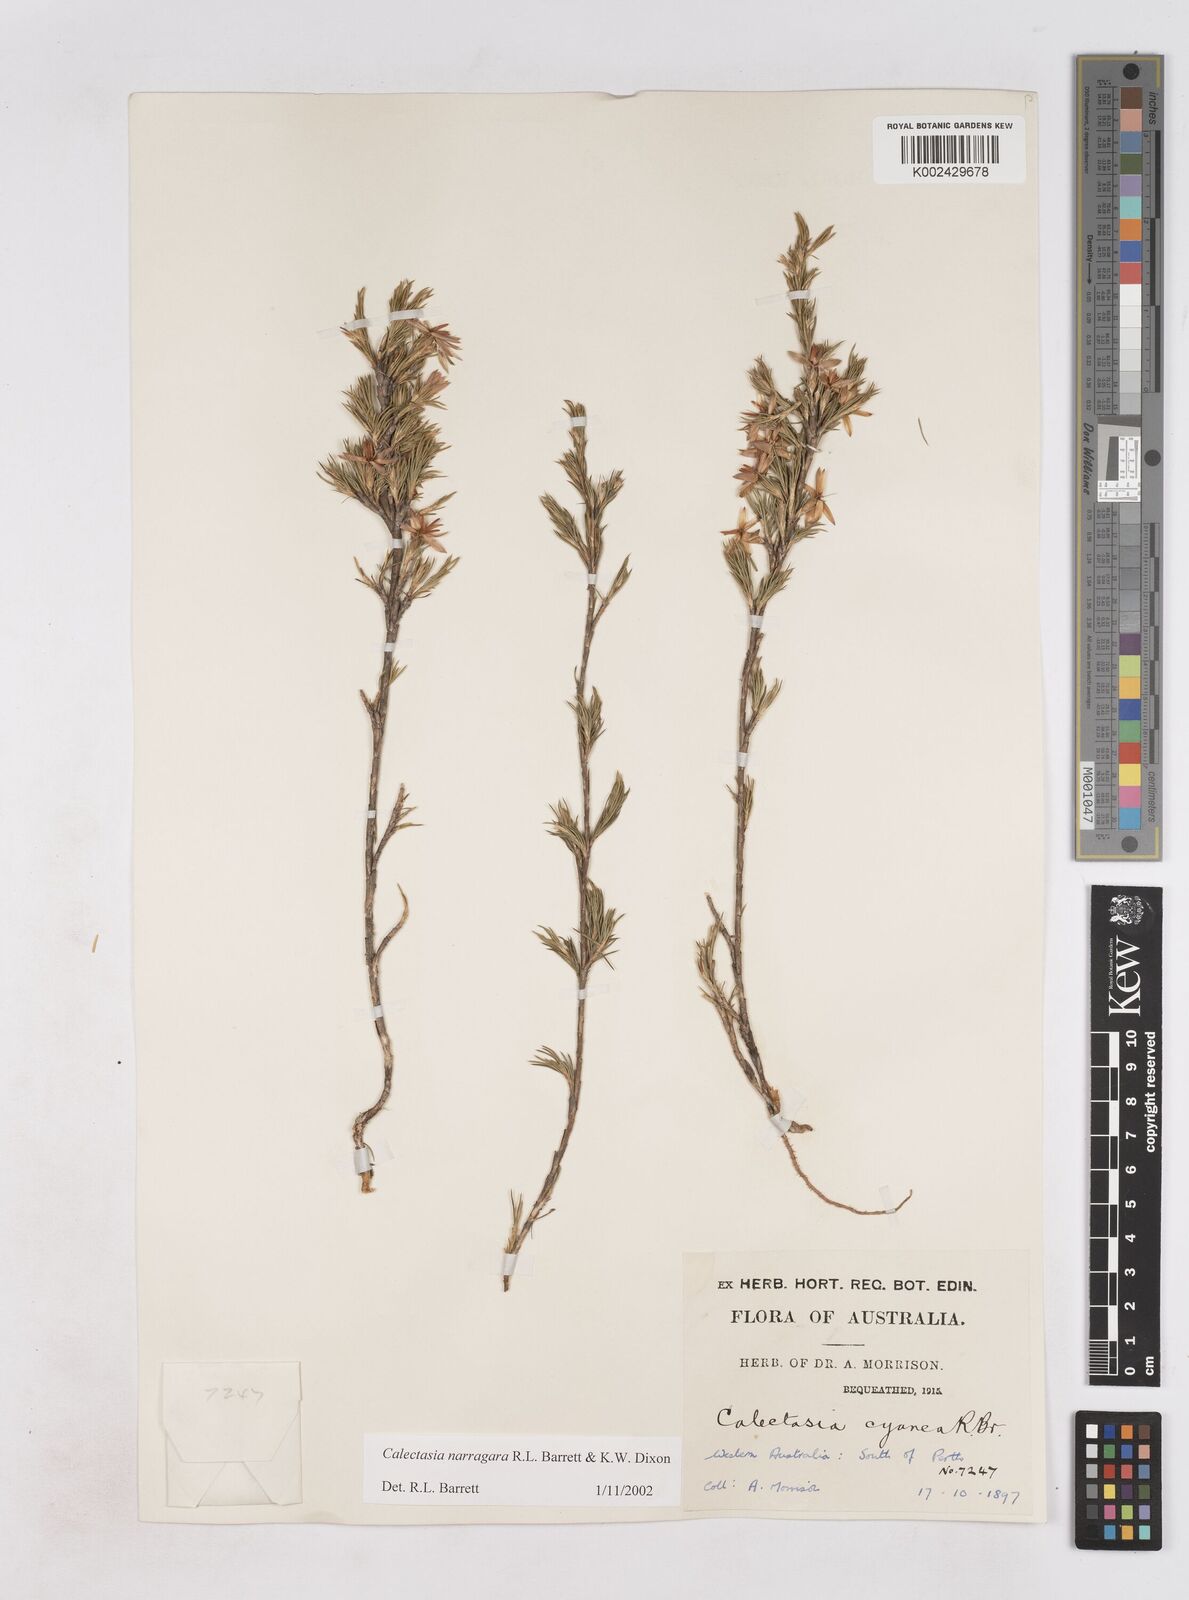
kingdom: Plantae
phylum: Tracheophyta
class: Liliopsida
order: Arecales
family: Dasypogonaceae
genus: Calectasia
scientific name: Calectasia narragara
